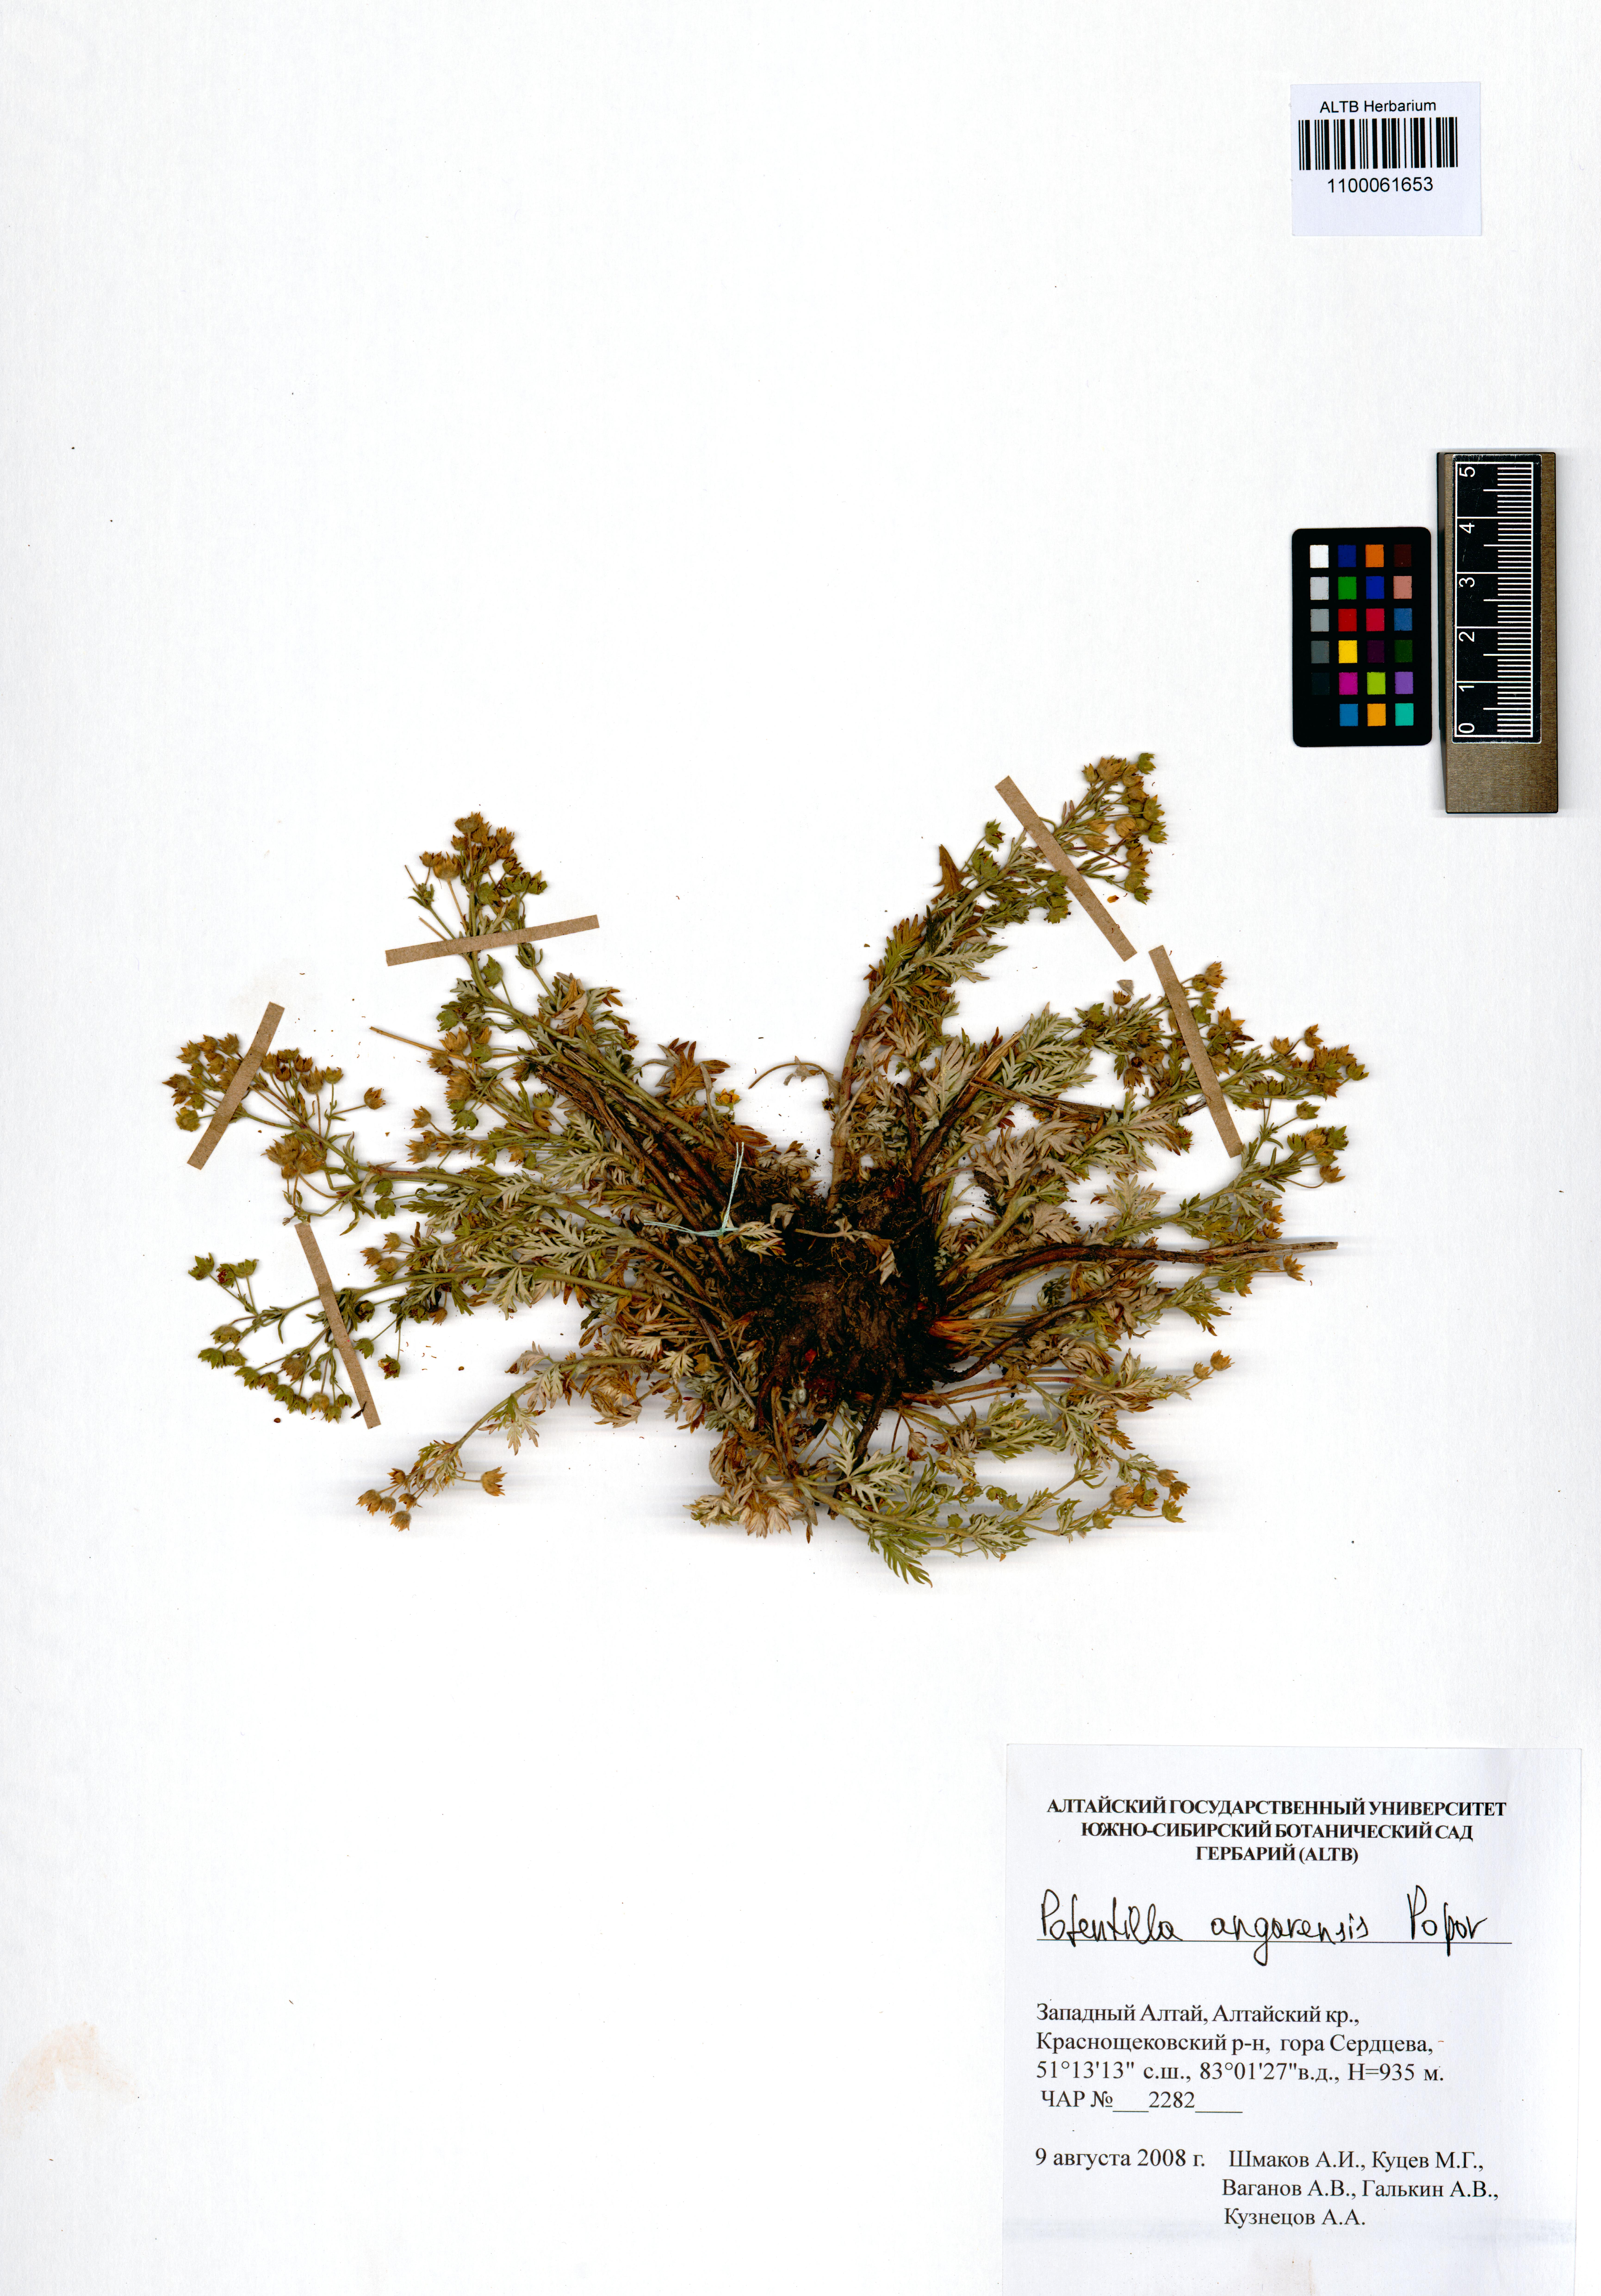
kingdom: Plantae
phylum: Tracheophyta
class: Magnoliopsida
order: Rosales
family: Rosaceae
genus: Potentilla
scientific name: Potentilla angarensis
